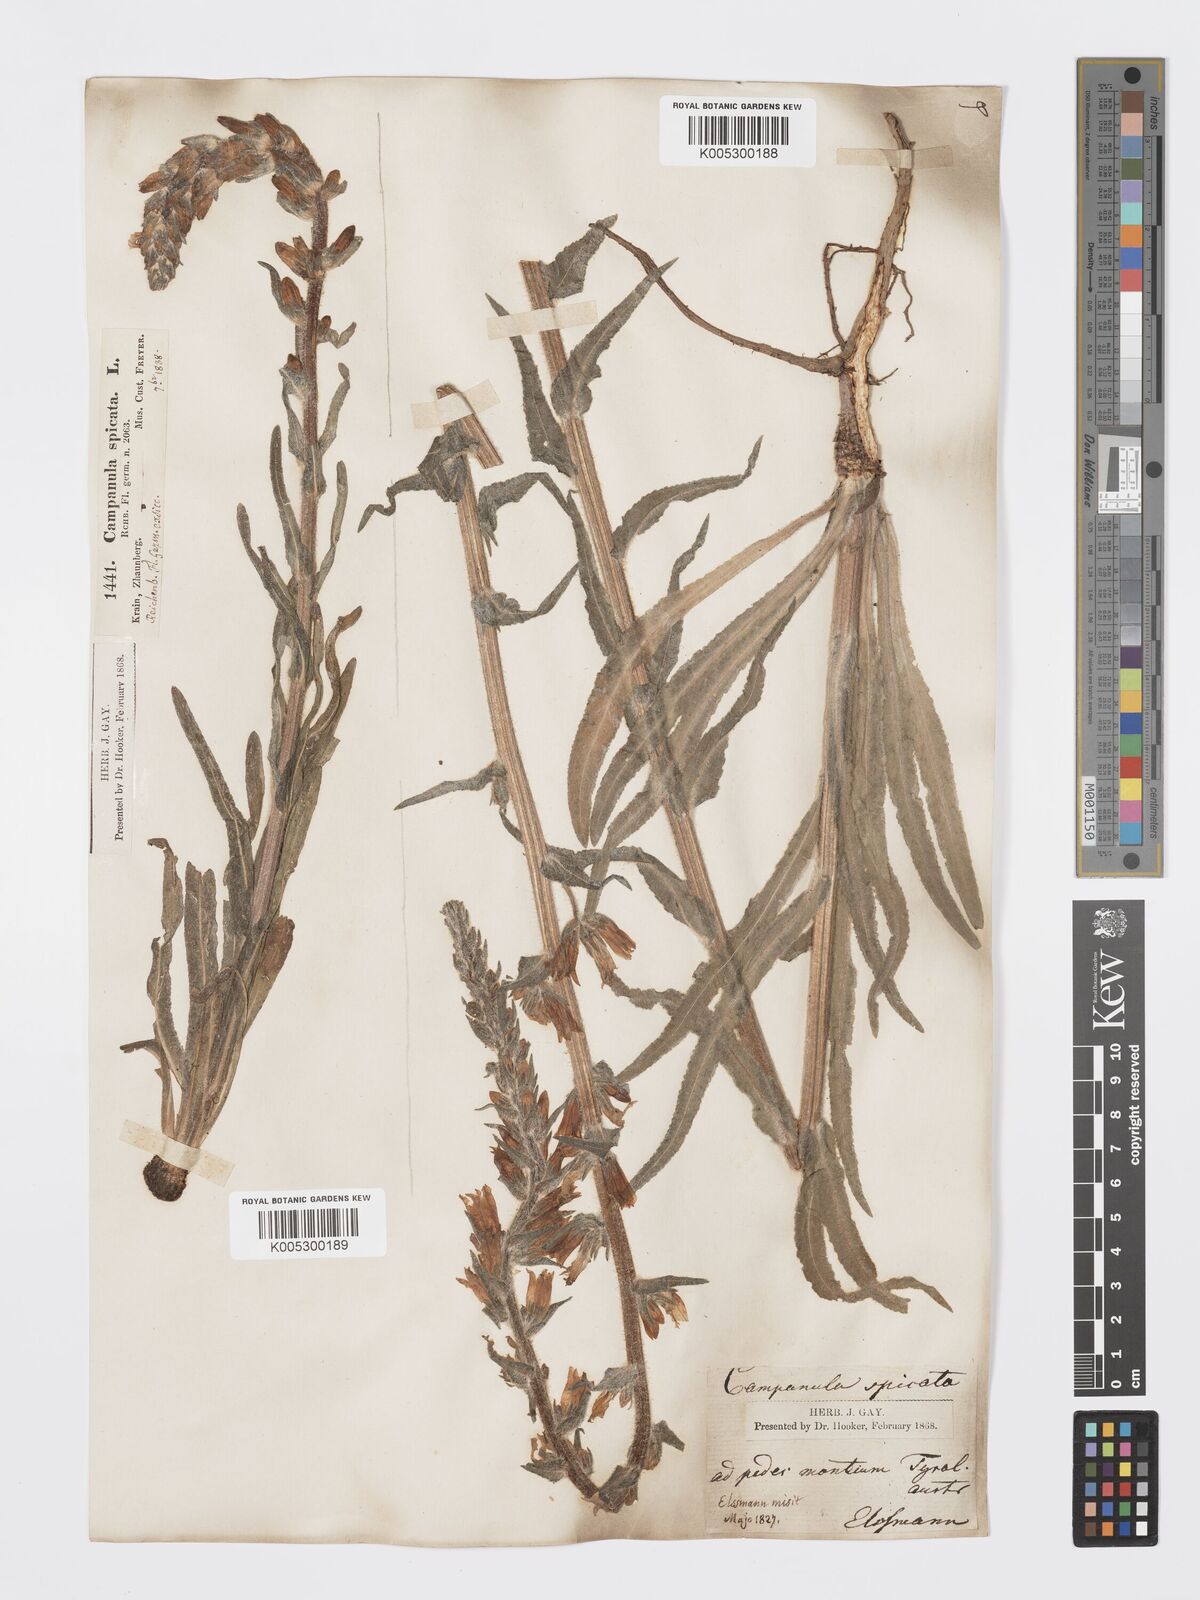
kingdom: Plantae
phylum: Tracheophyta
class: Magnoliopsida
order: Asterales
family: Campanulaceae
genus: Campanula
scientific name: Campanula spicata
